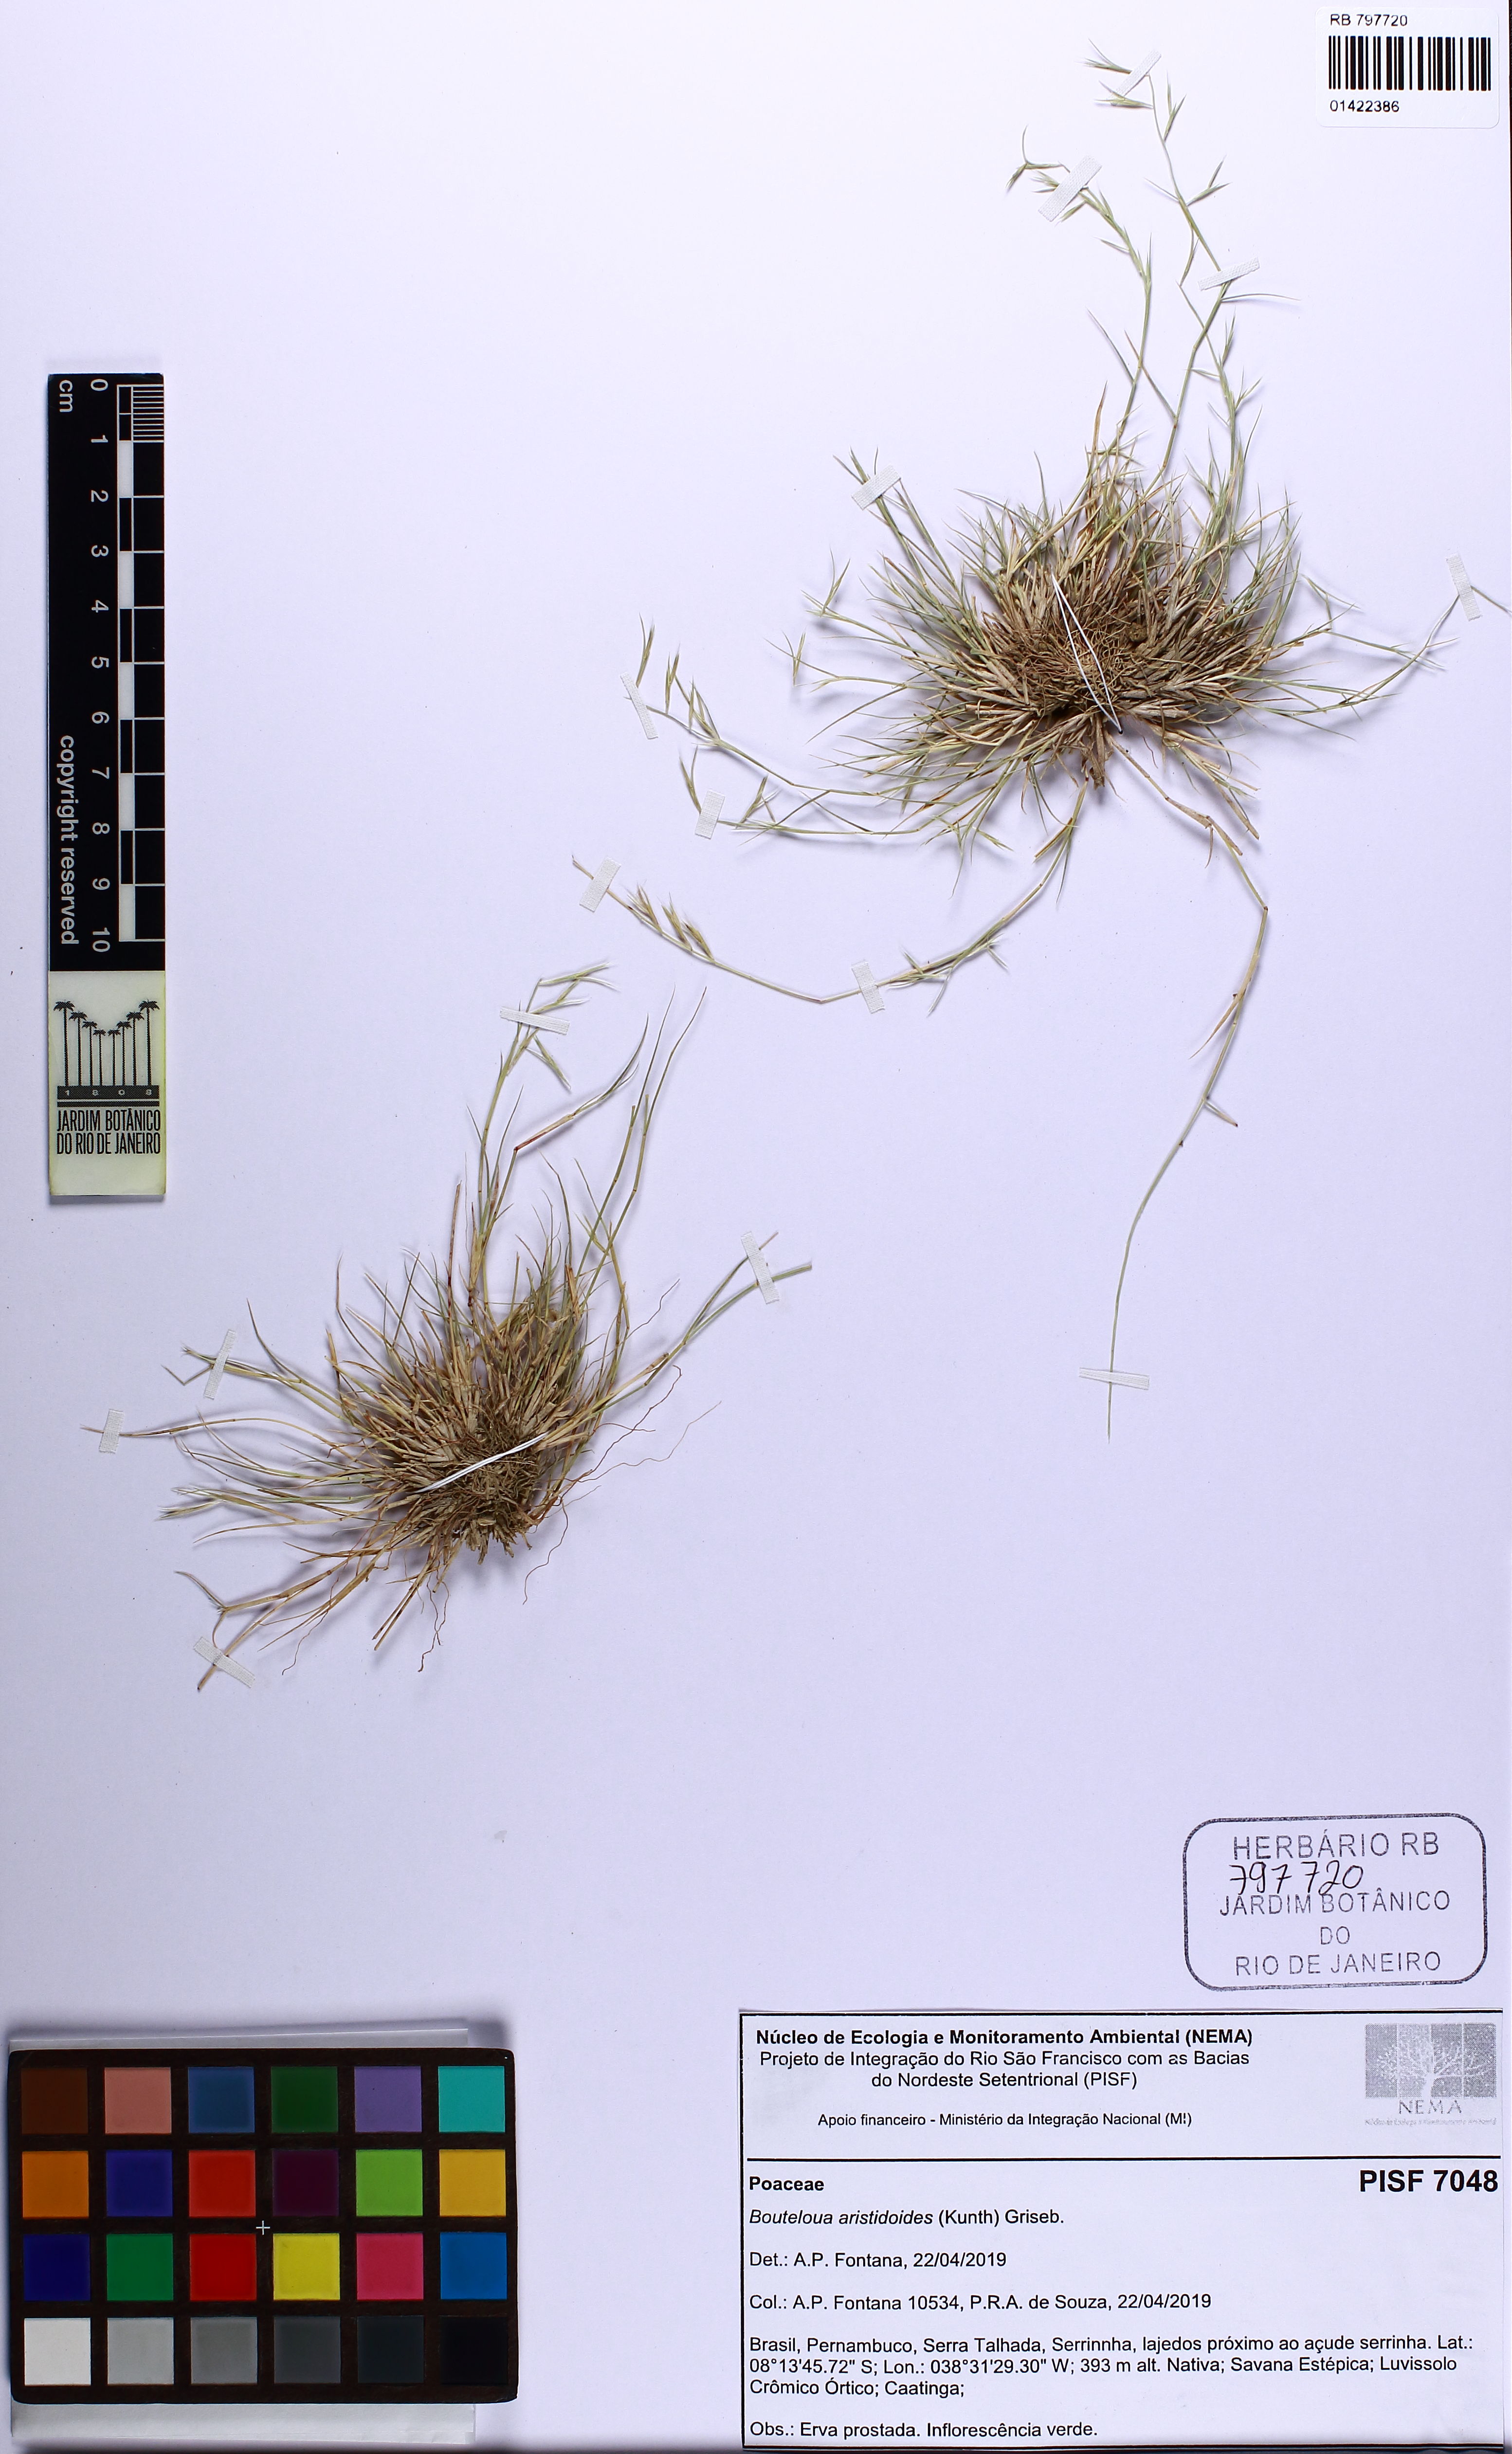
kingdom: Plantae
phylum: Tracheophyta
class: Liliopsida
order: Poales
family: Poaceae
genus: Bouteloua
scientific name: Bouteloua aristidoides
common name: Needle grama
